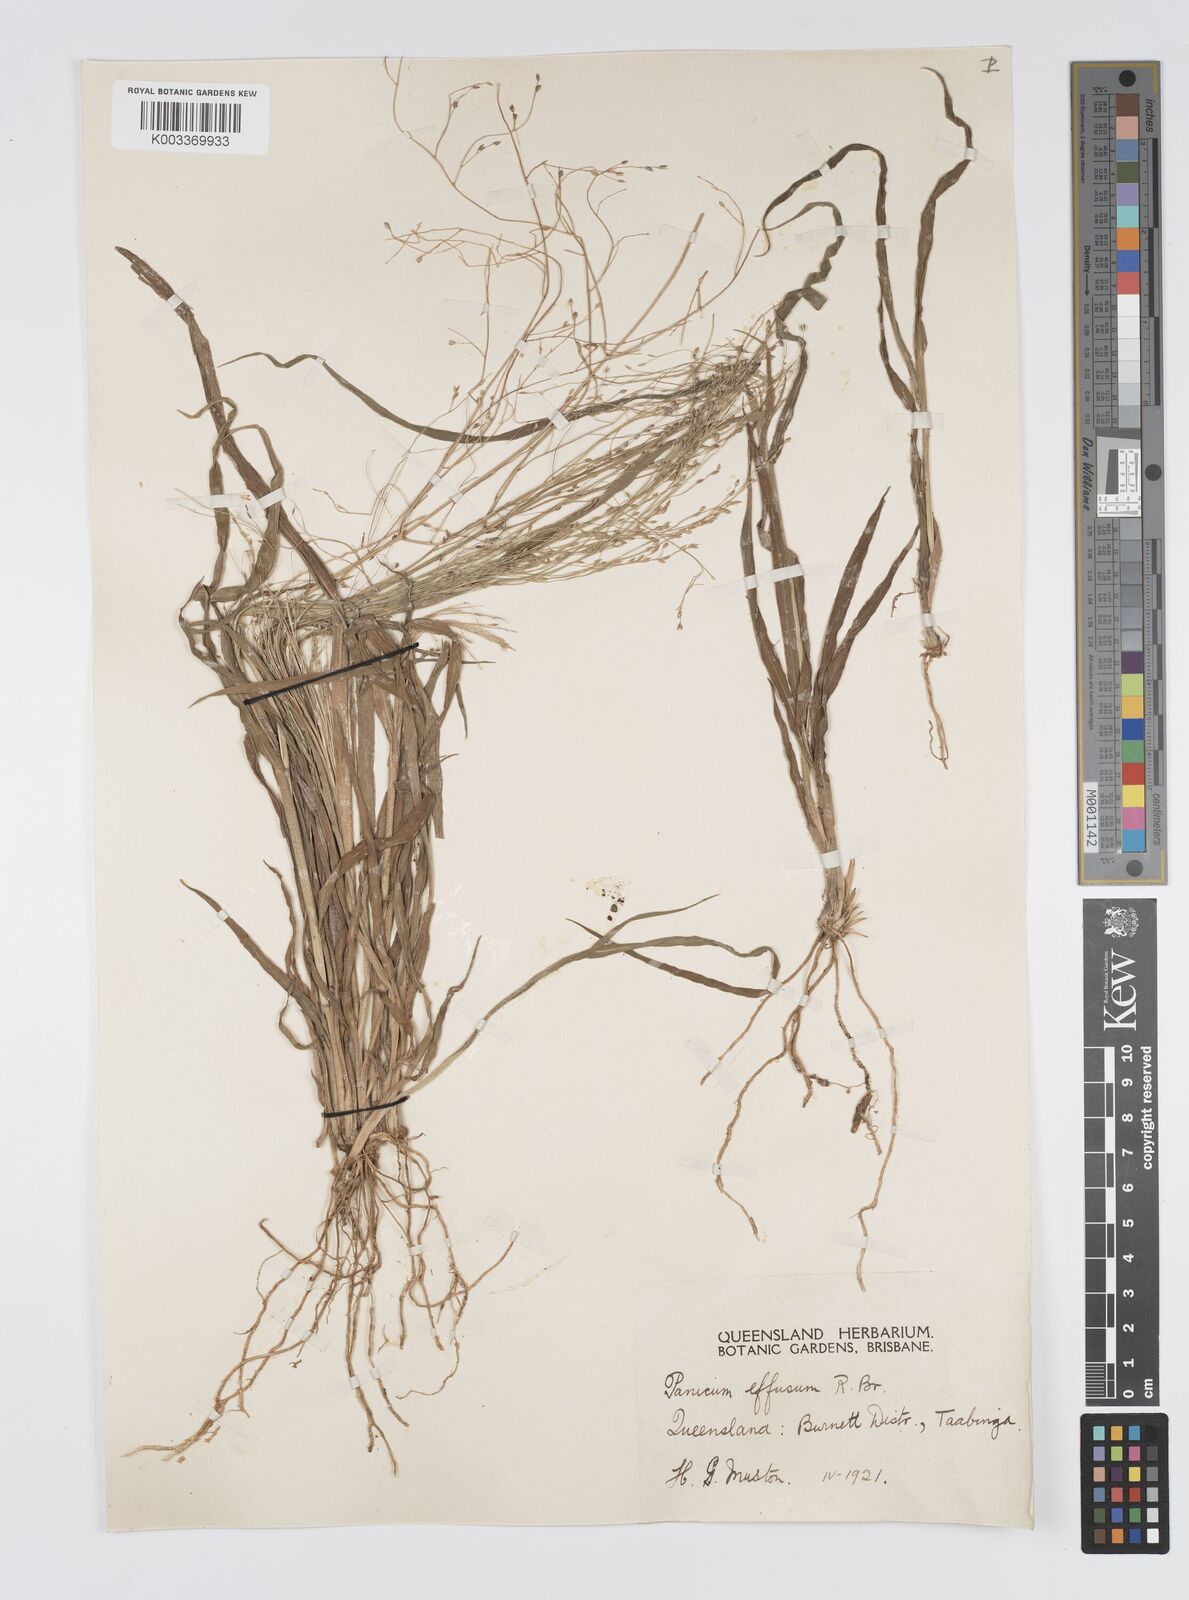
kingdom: Plantae
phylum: Tracheophyta
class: Liliopsida
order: Poales
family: Poaceae
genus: Panicum
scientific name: Panicum effusum
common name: Hairy panic grass
